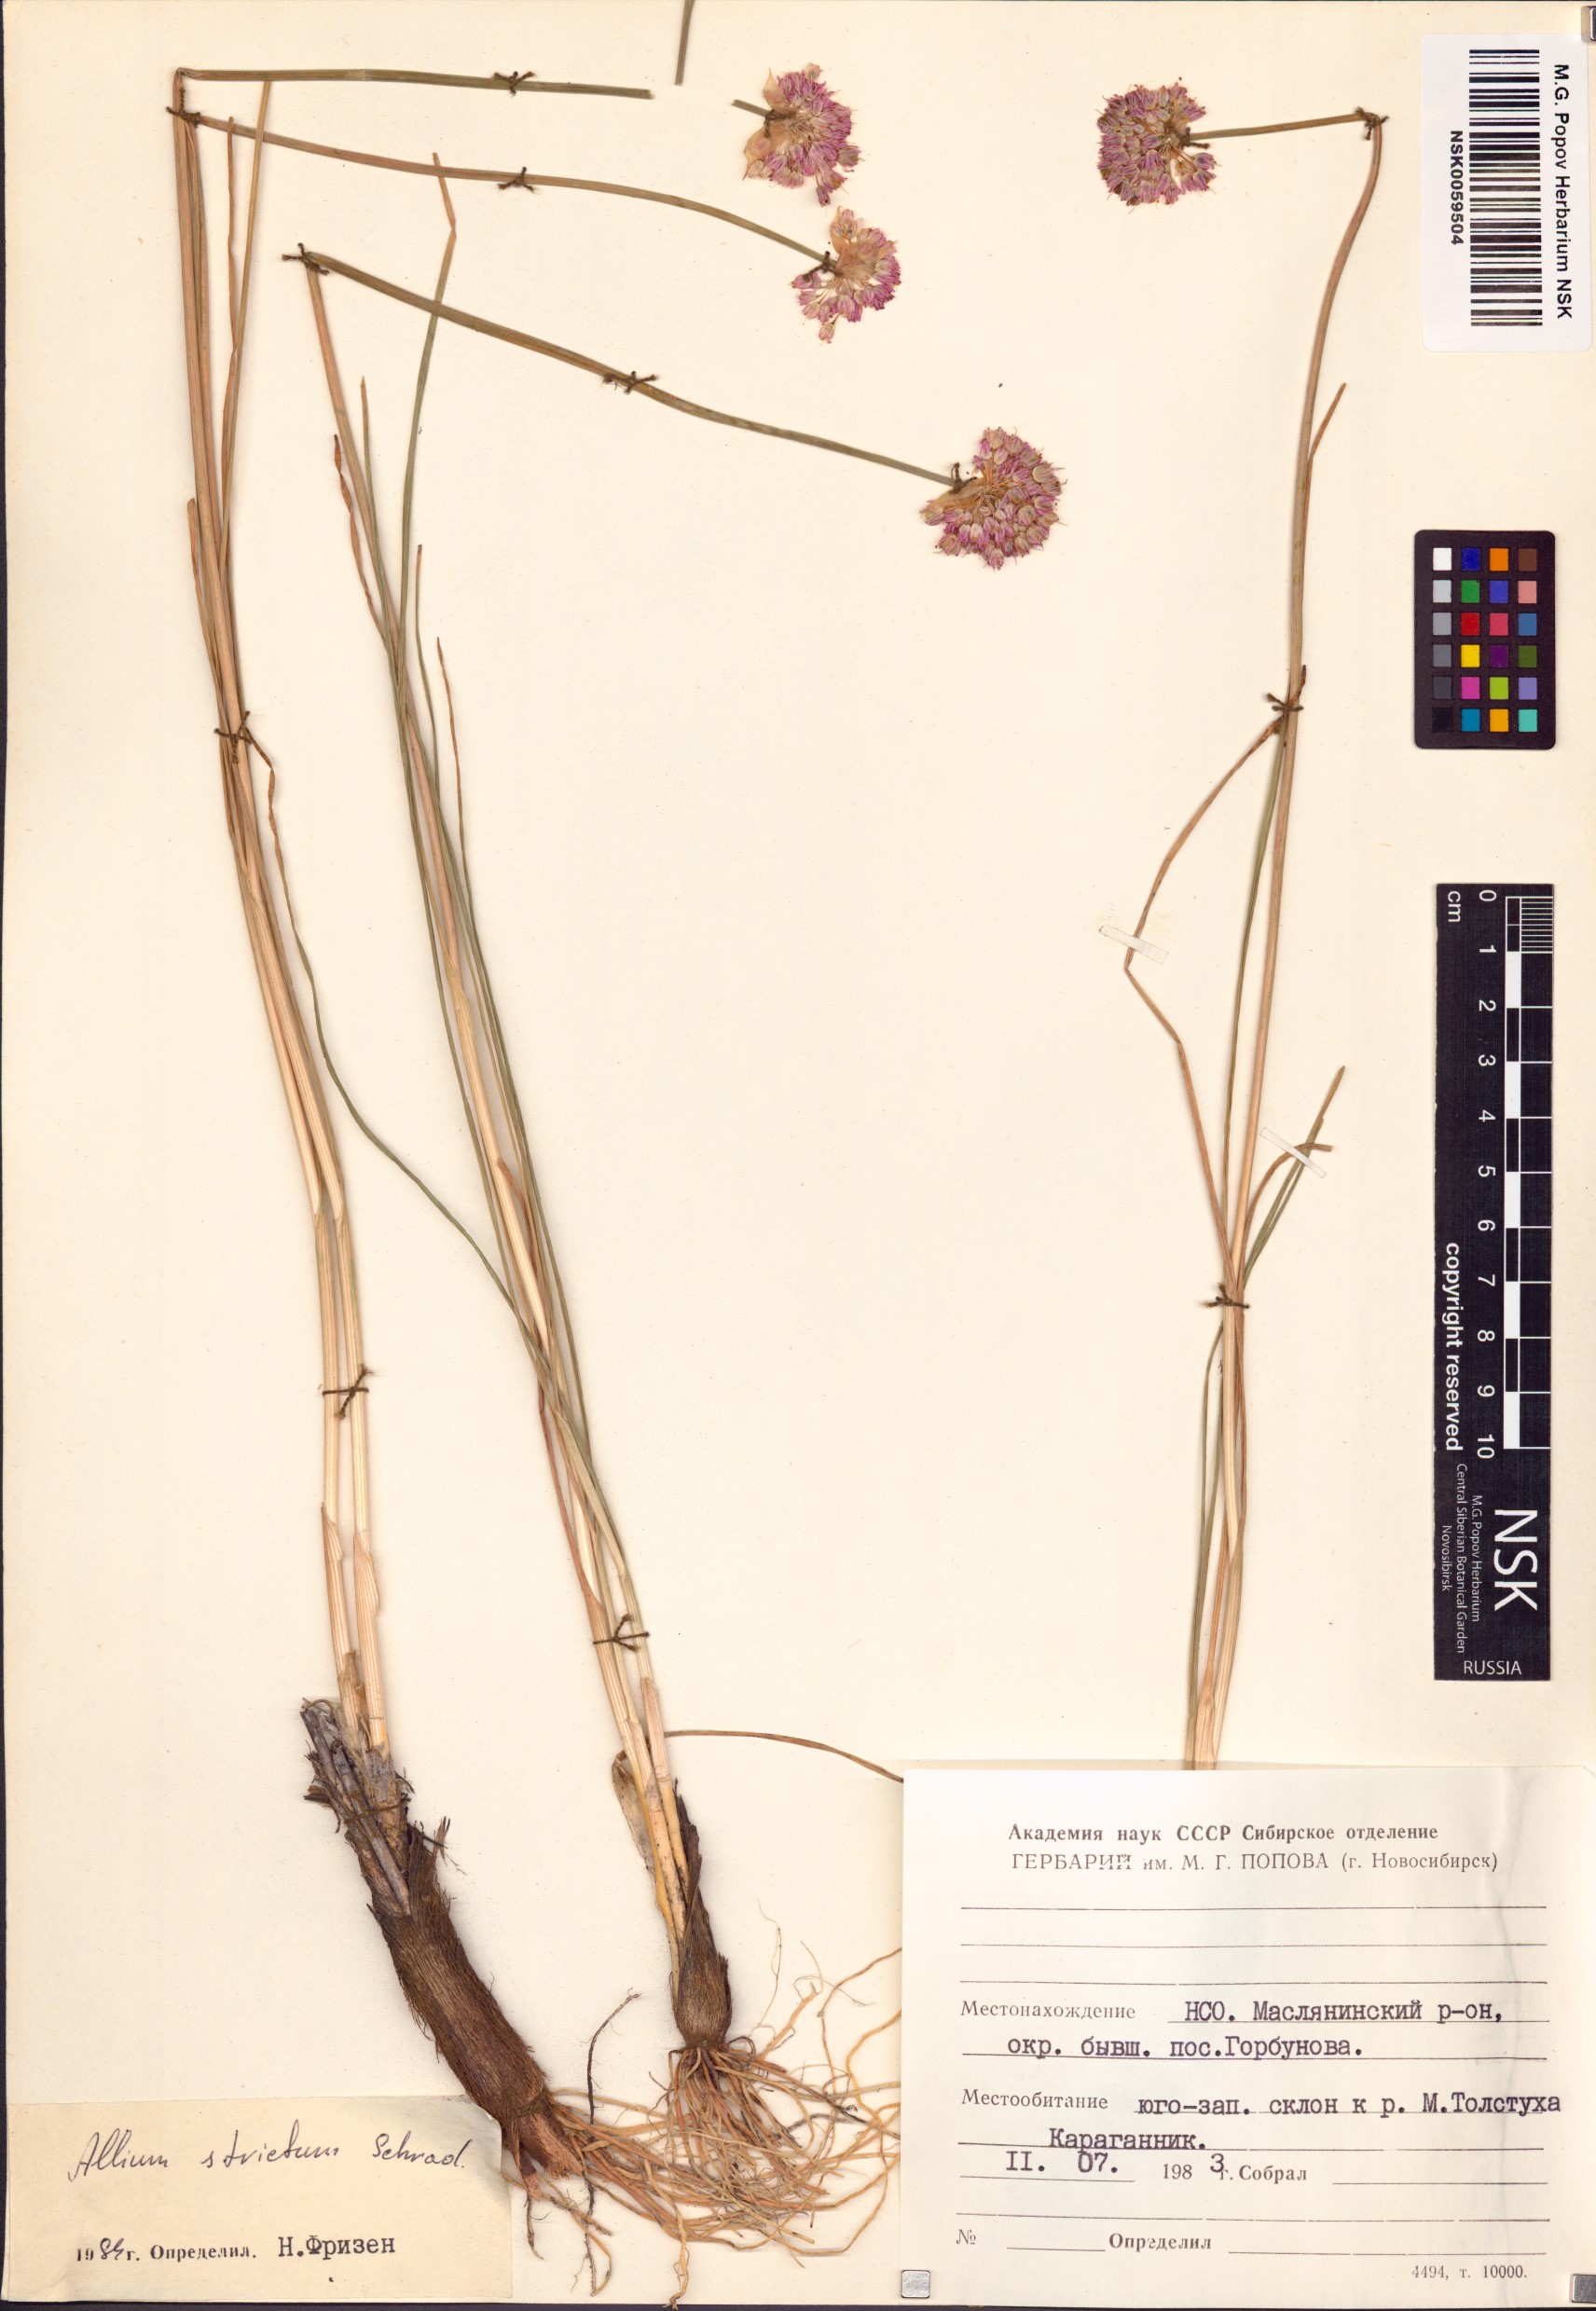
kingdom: Plantae
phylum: Tracheophyta
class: Liliopsida
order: Asparagales
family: Amaryllidaceae
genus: Allium
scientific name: Allium strictum
